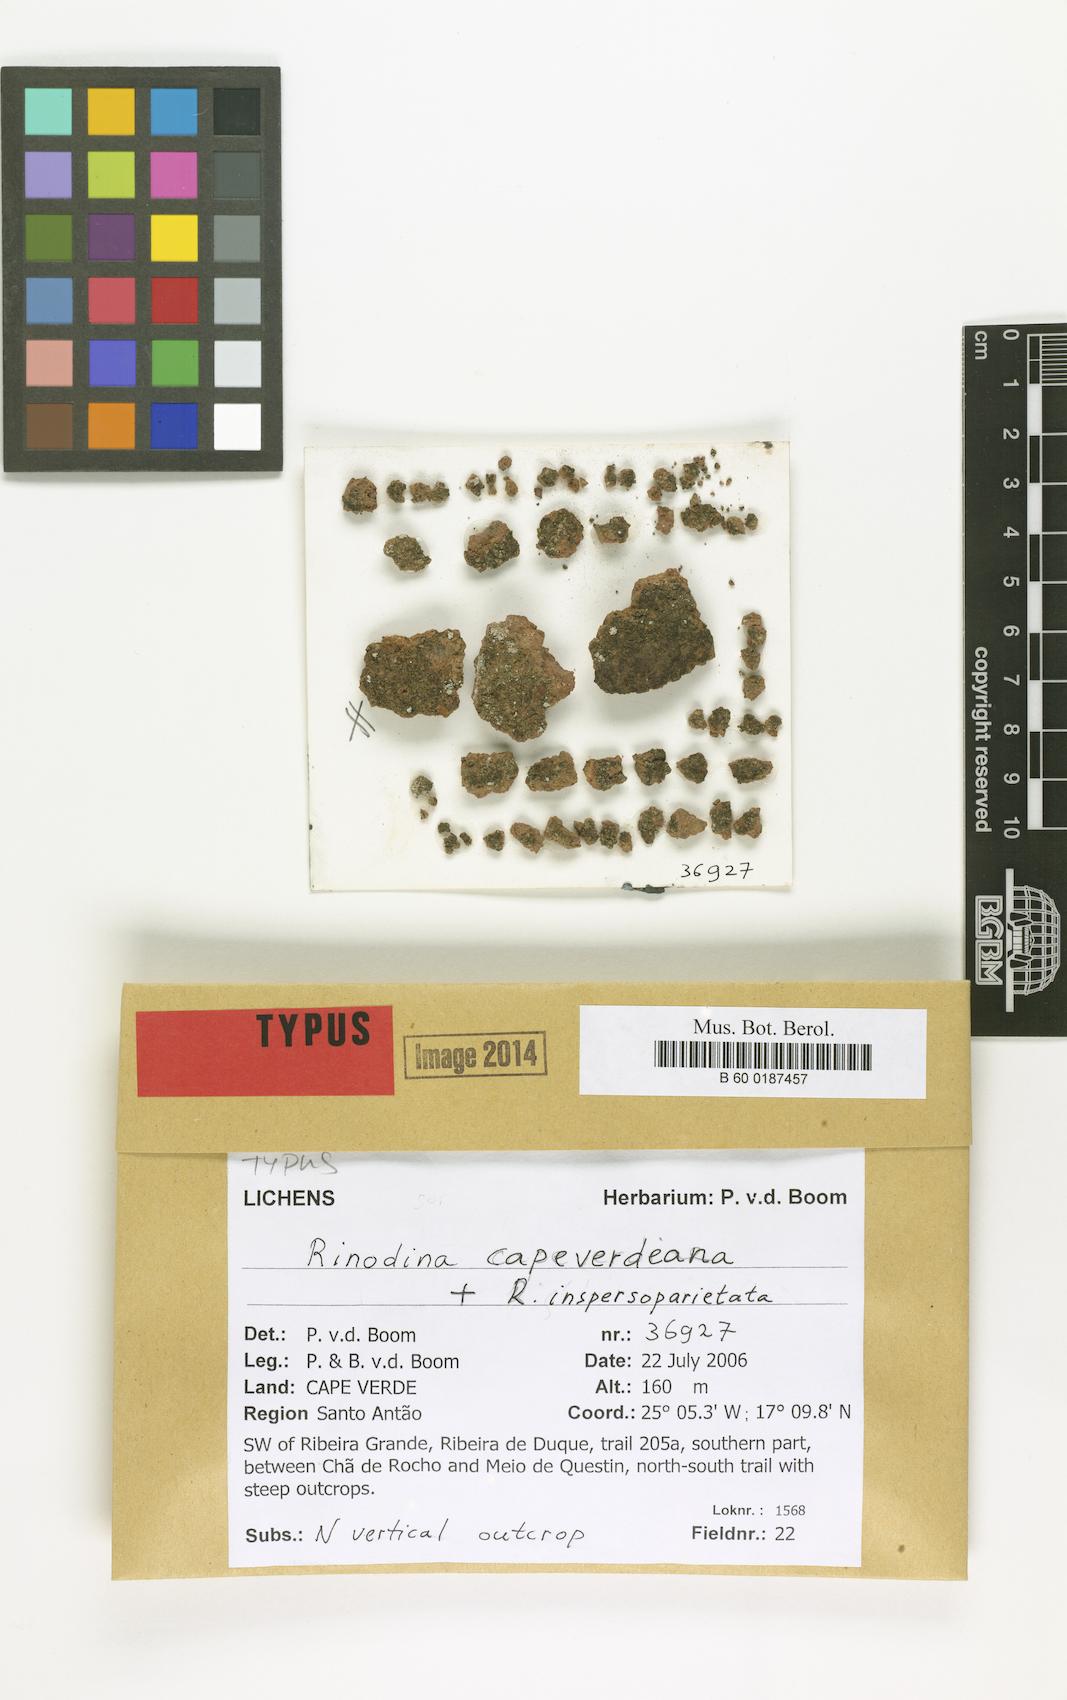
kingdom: Fungi
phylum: Ascomycota
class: Lecanoromycetes
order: Caliciales
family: Physciaceae
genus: Rinodina
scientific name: Rinodina capeverdeana
